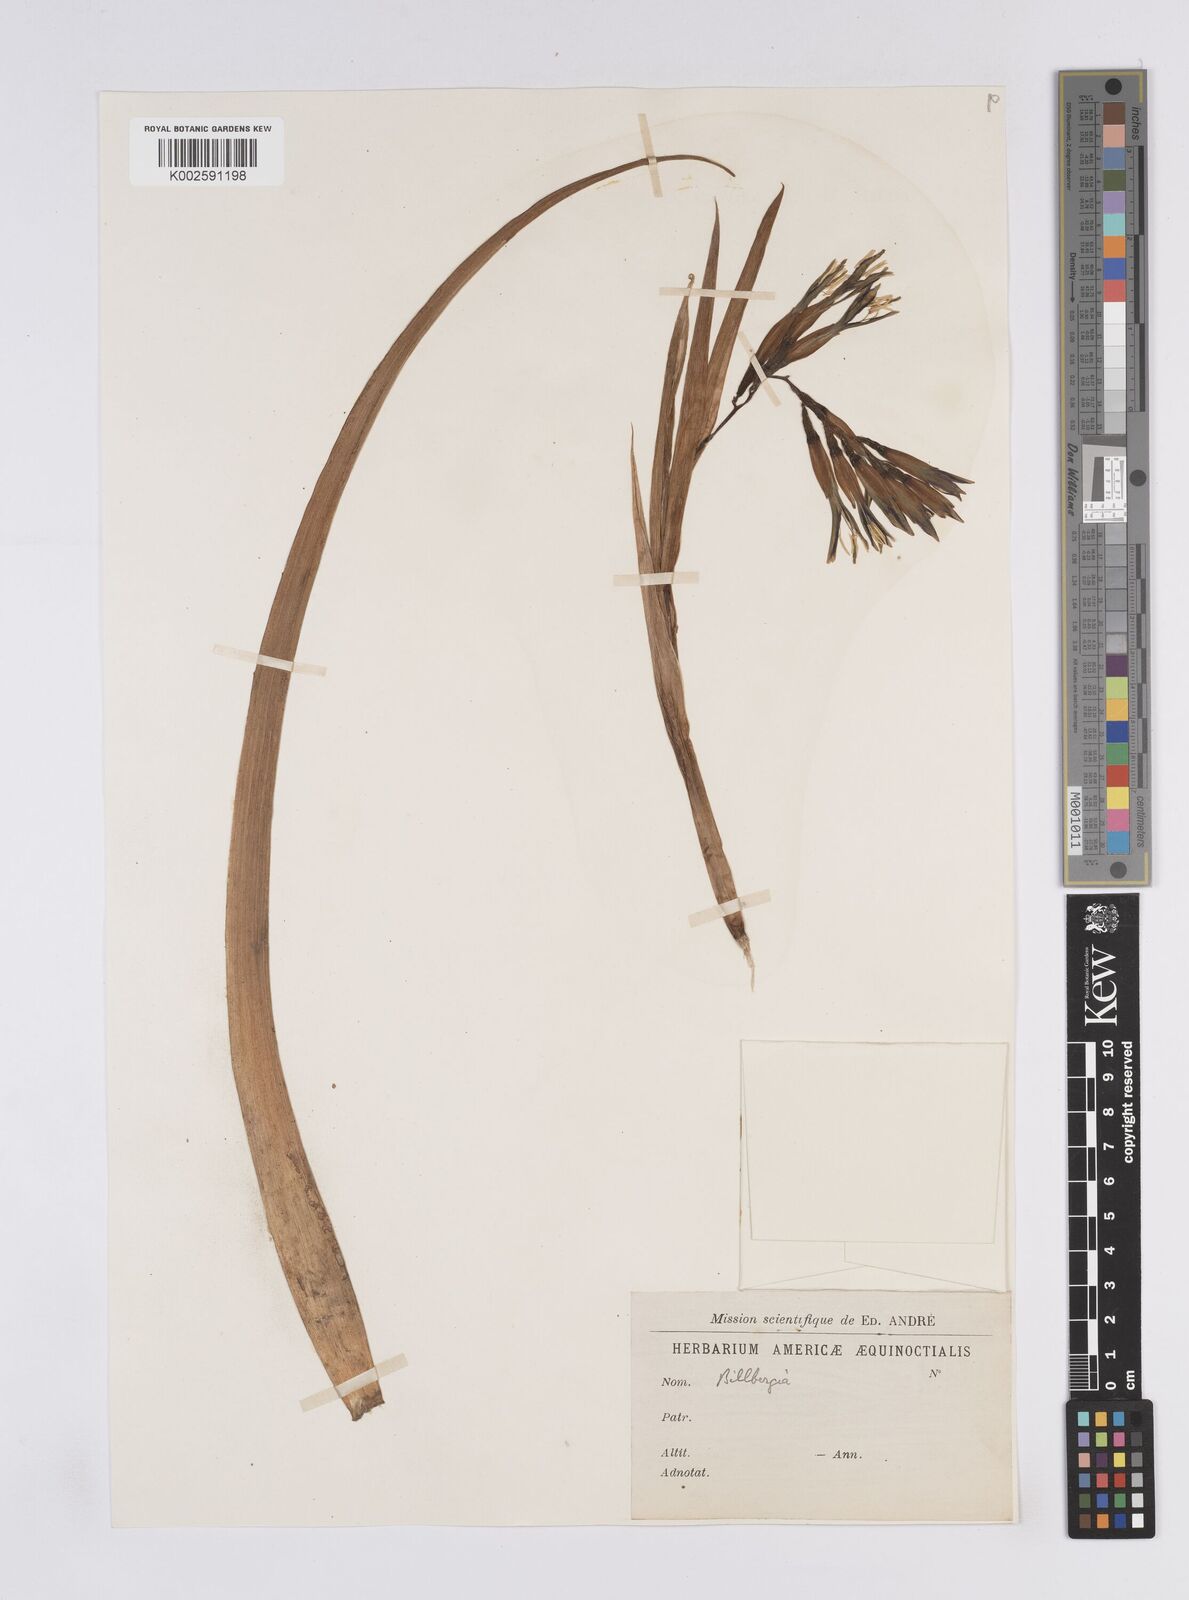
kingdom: Plantae
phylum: Tracheophyta
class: Liliopsida
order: Poales
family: Bromeliaceae
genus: Billbergia
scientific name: Billbergia
